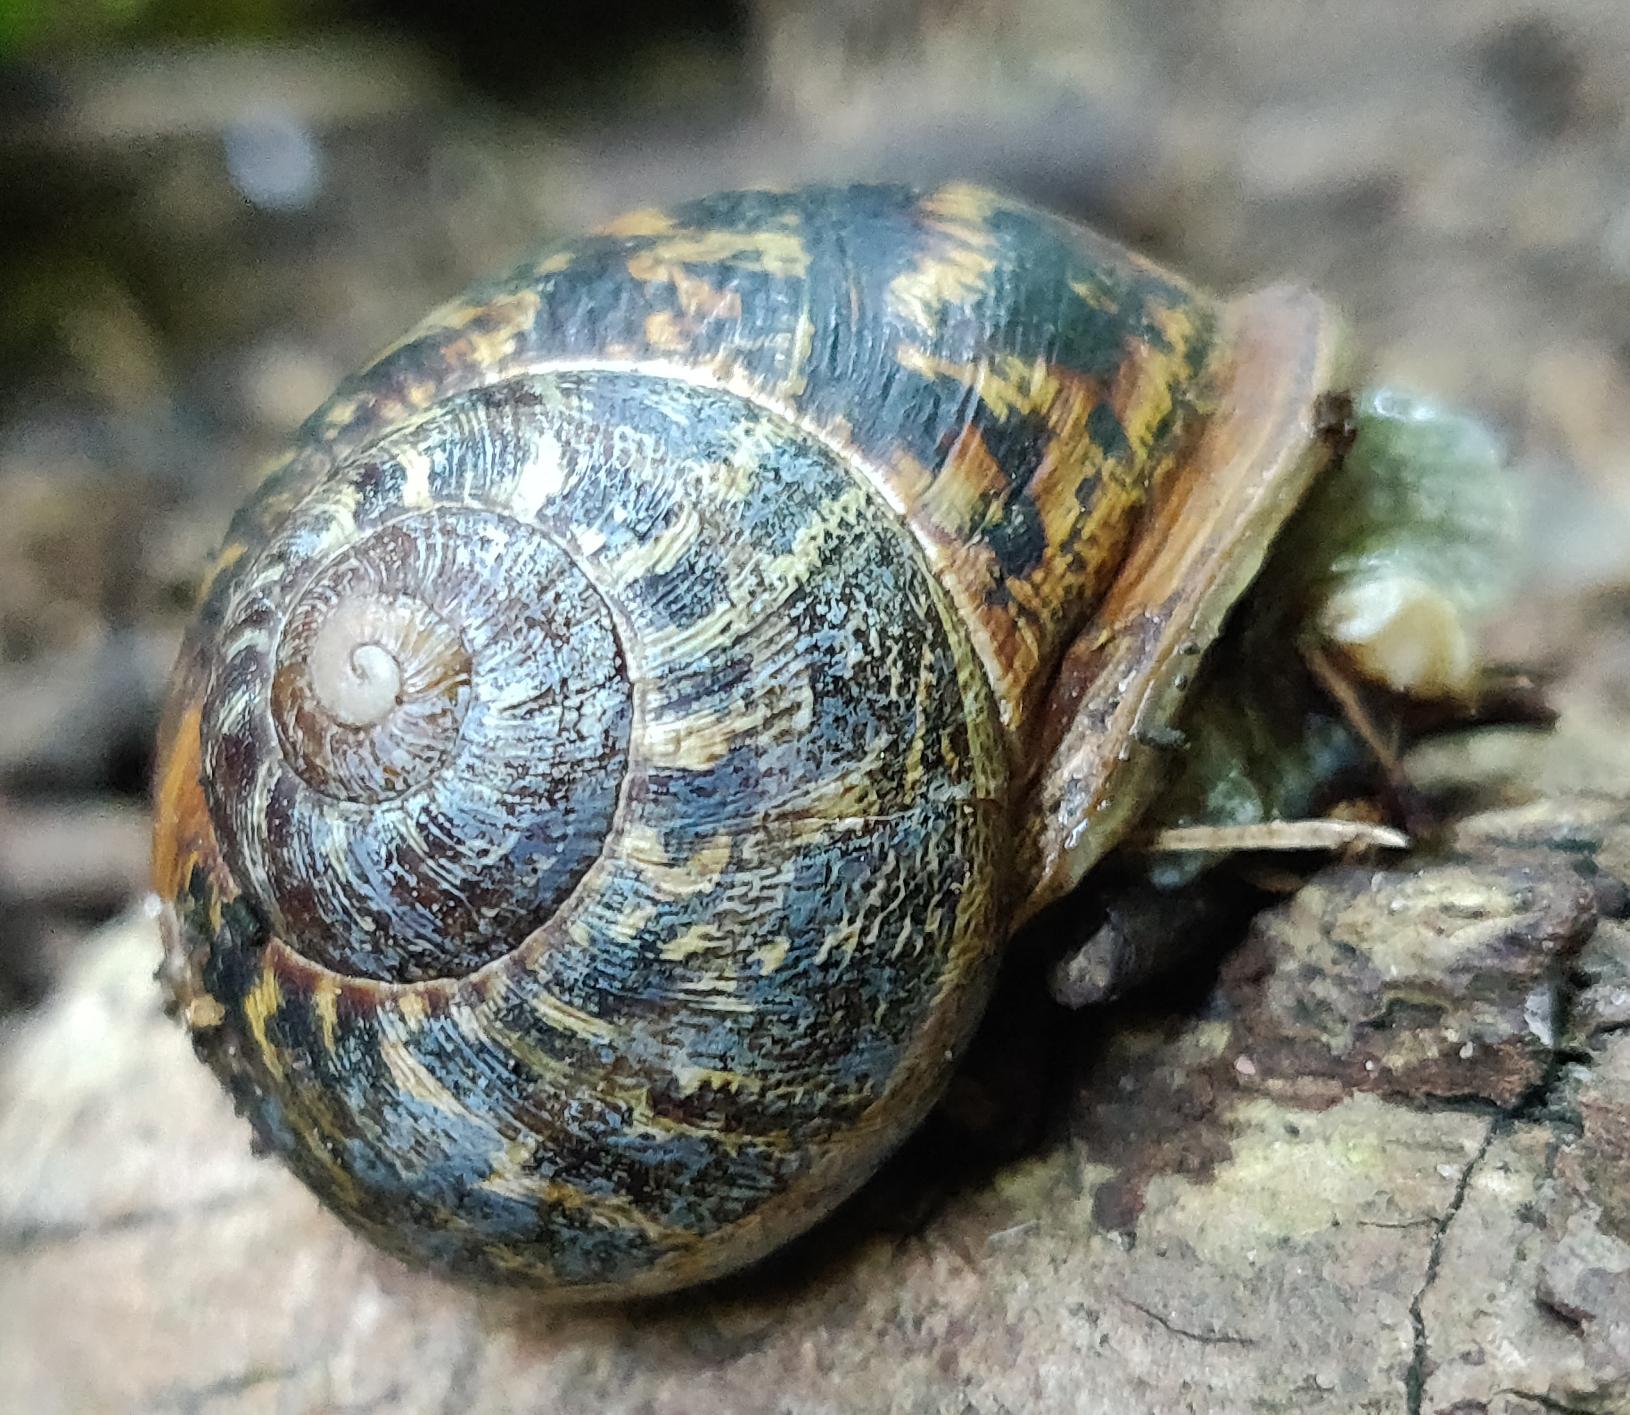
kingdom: Animalia
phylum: Mollusca
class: Gastropoda
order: Stylommatophora
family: Helicidae
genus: Cornu
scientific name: Cornu aspersum
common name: Plettet voldsnegl
